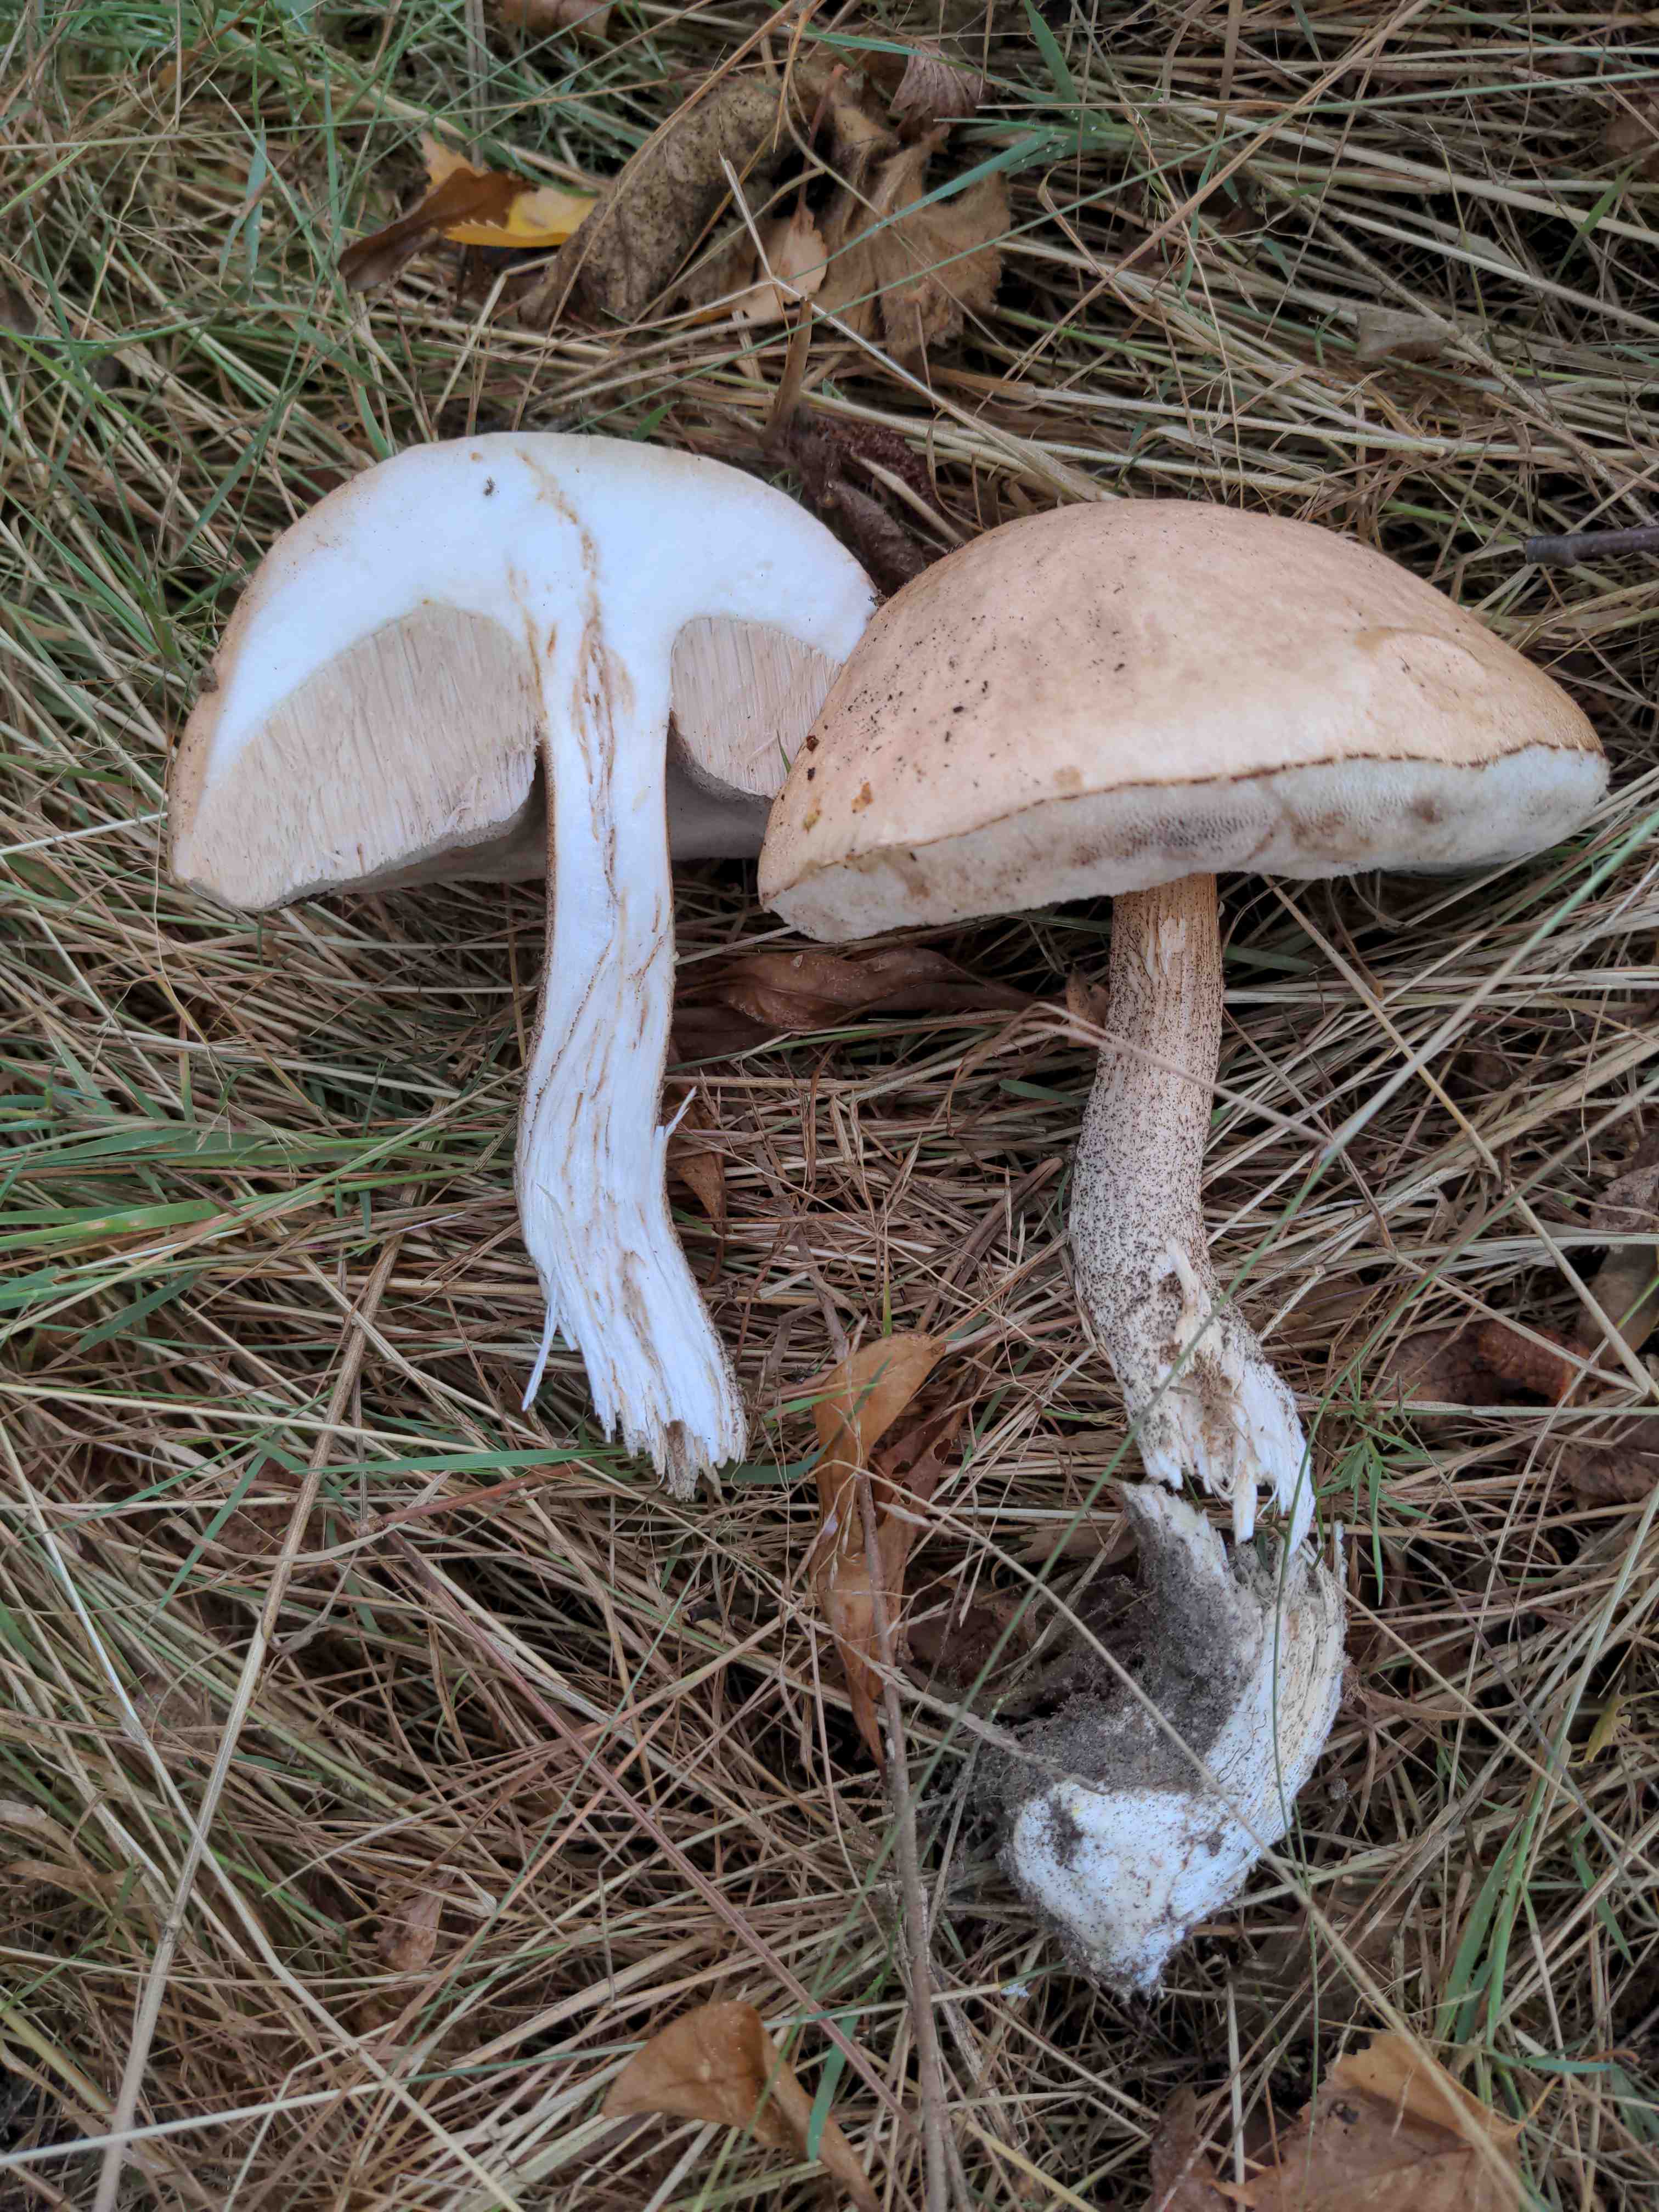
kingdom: Fungi
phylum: Basidiomycota
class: Agaricomycetes
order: Boletales
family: Boletaceae
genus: Leccinum
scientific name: Leccinum scabrum
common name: brun skælrørhat
